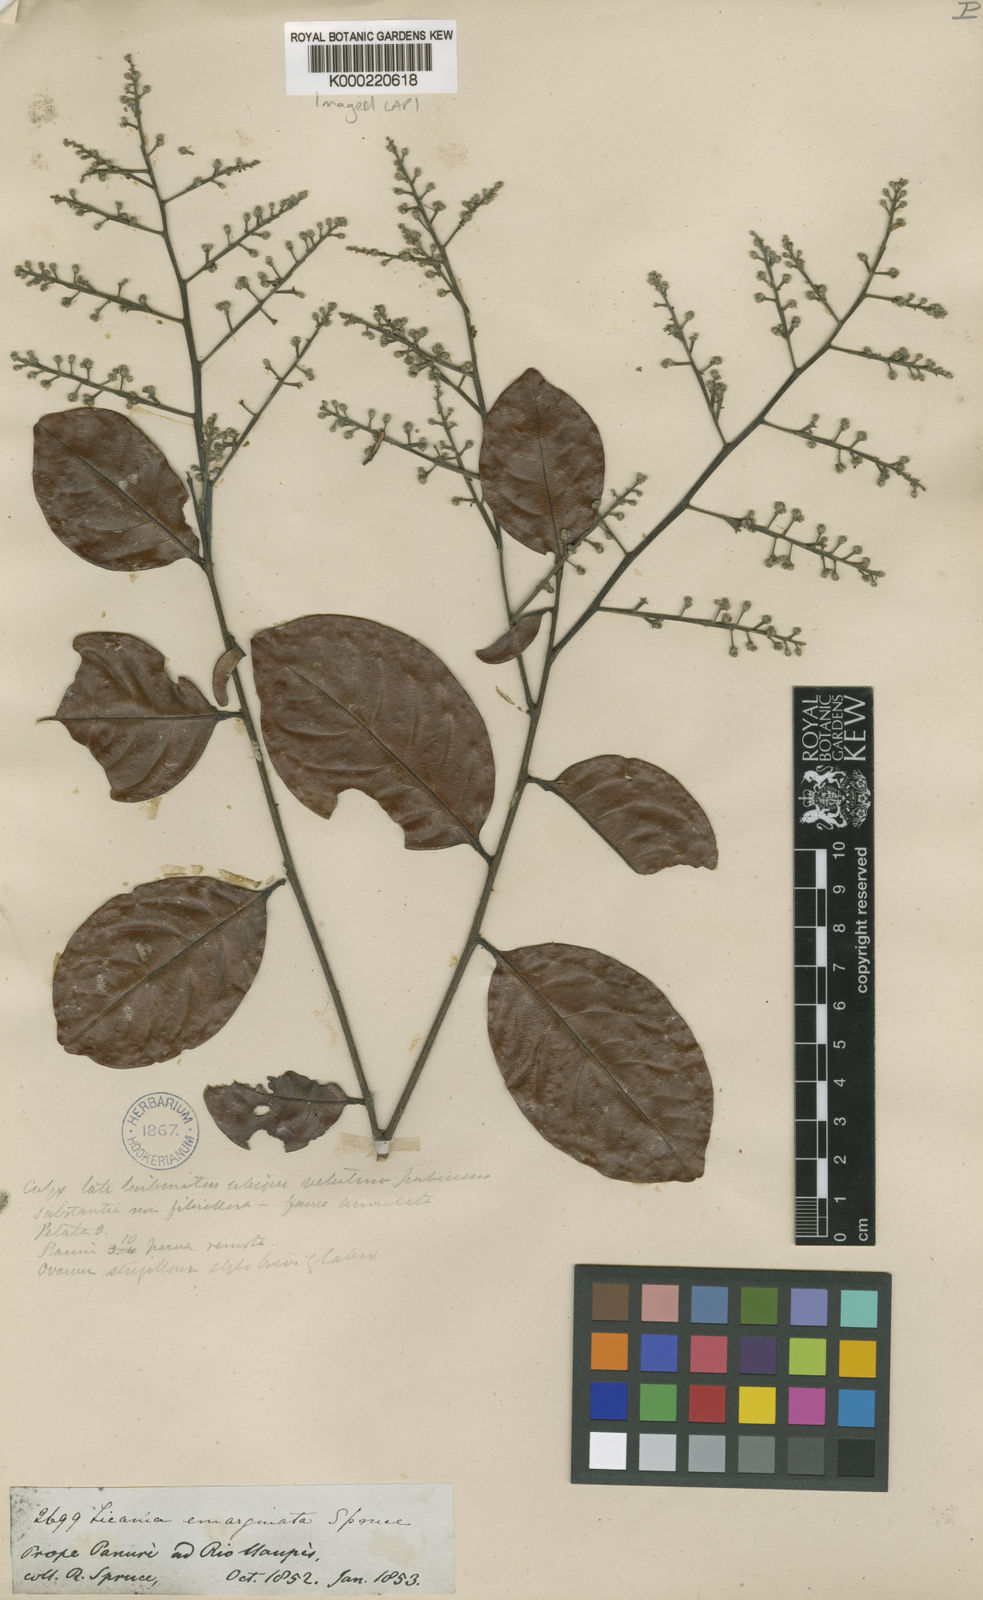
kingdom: Plantae
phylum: Tracheophyta
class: Magnoliopsida
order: Malpighiales
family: Chrysobalanaceae
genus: Leptobalanus
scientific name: Leptobalanus emarginatus
